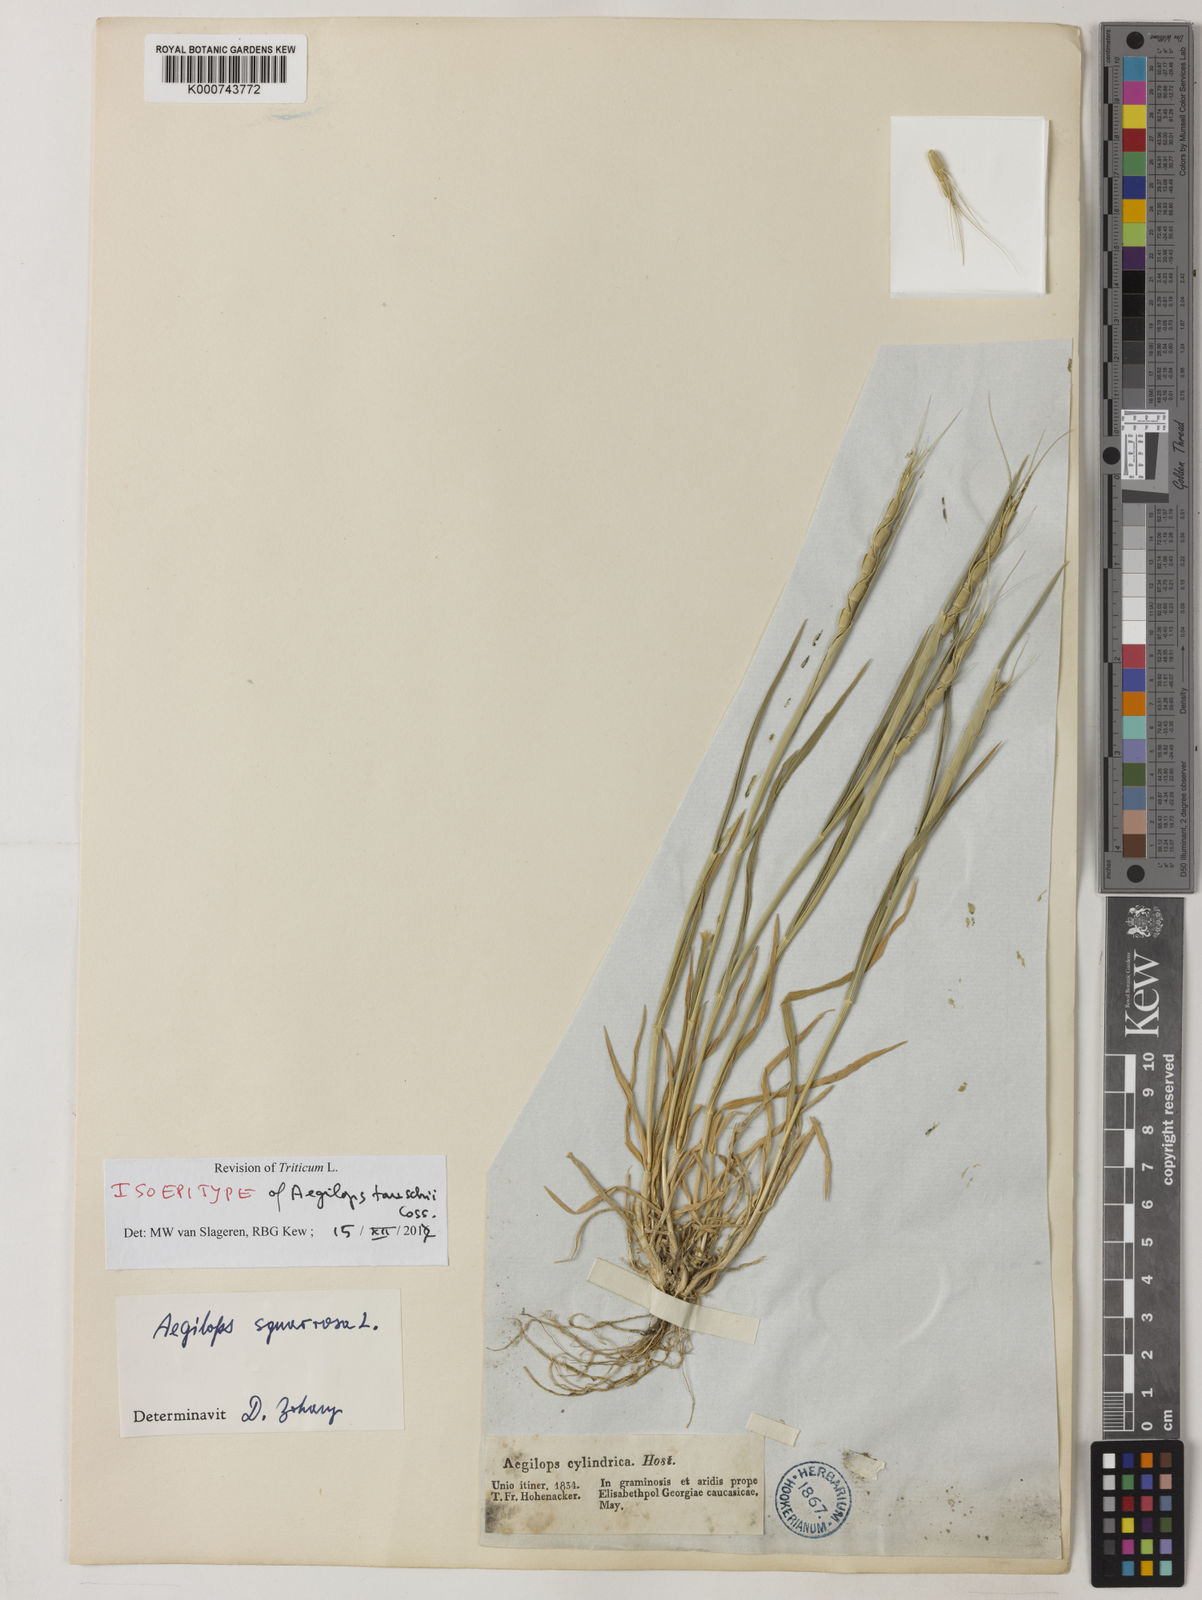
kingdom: Plantae
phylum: Tracheophyta
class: Liliopsida
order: Poales
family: Poaceae
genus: Aegilops
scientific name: Aegilops tauschii
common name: Rough-spike hard grass
